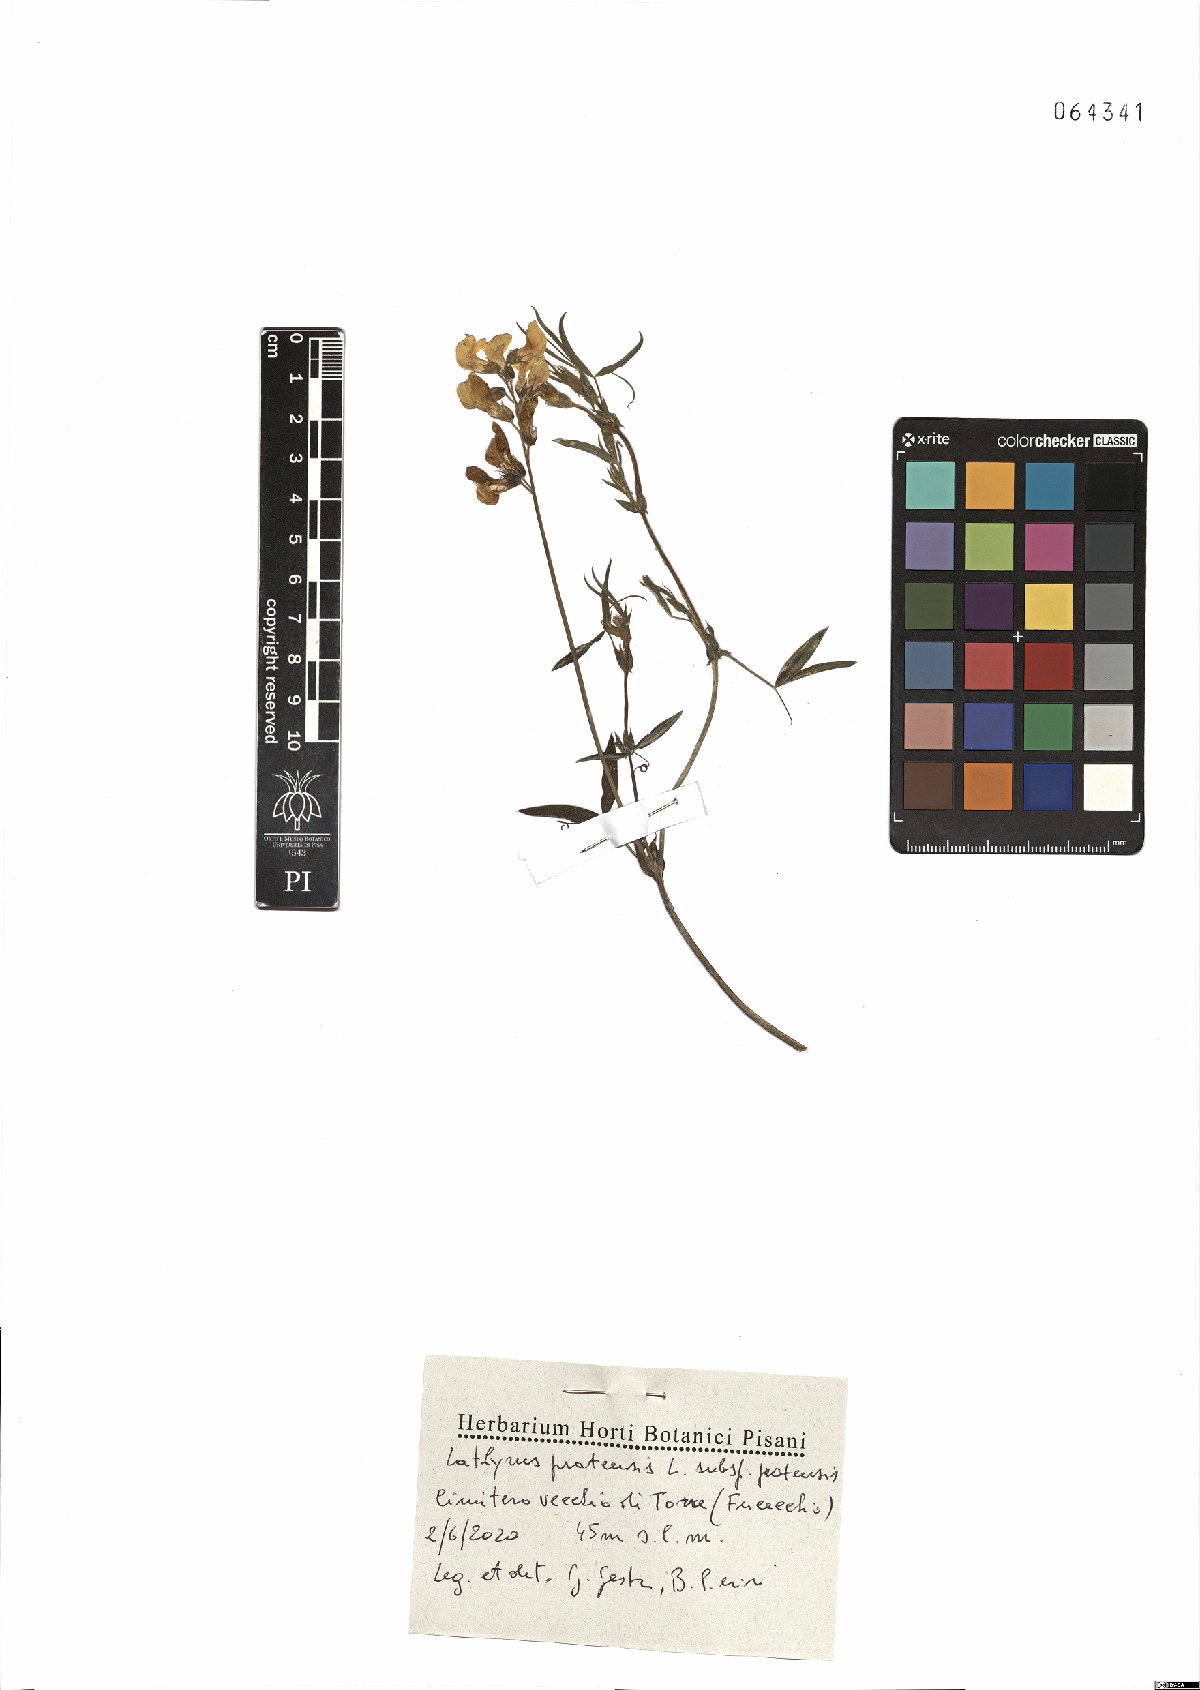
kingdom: Plantae
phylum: Tracheophyta
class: Magnoliopsida
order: Fabales
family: Fabaceae
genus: Lathyrus
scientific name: Lathyrus pratensis
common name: Meadow vetchling
